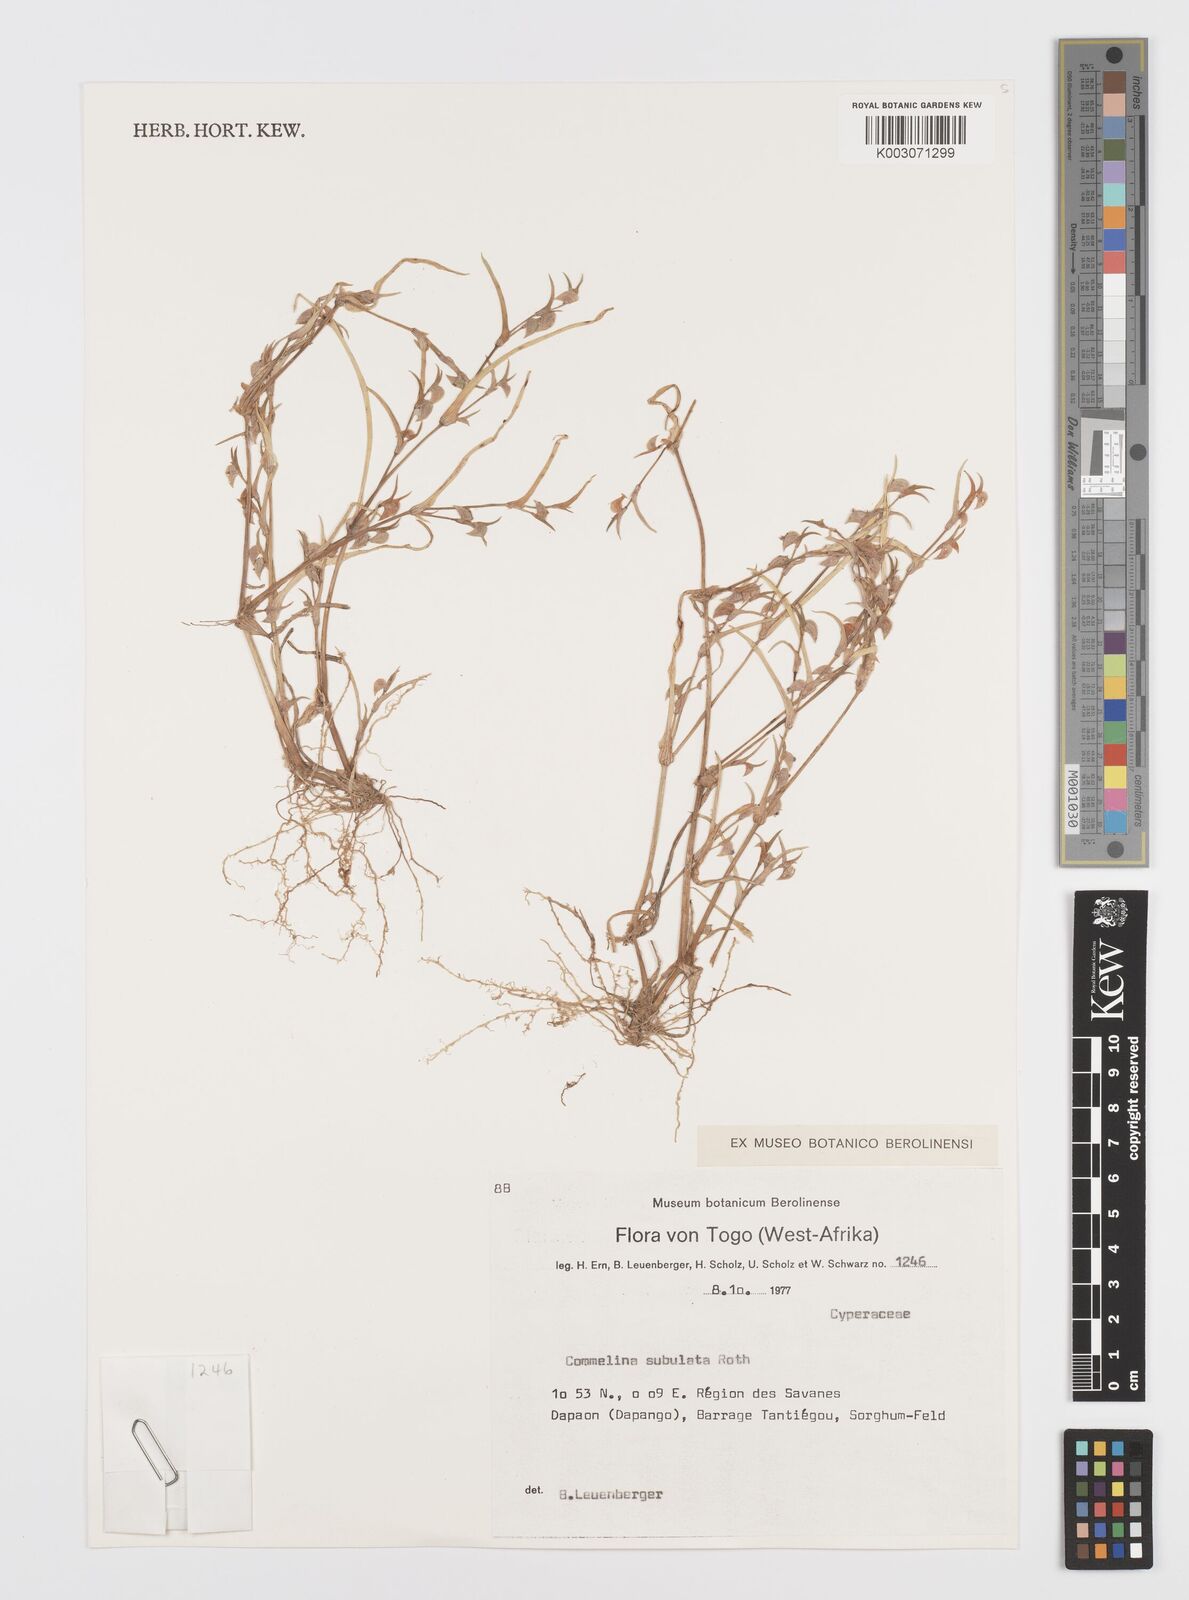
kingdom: Plantae
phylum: Tracheophyta
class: Liliopsida
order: Commelinales
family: Commelinaceae
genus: Commelina
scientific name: Commelina subulata
